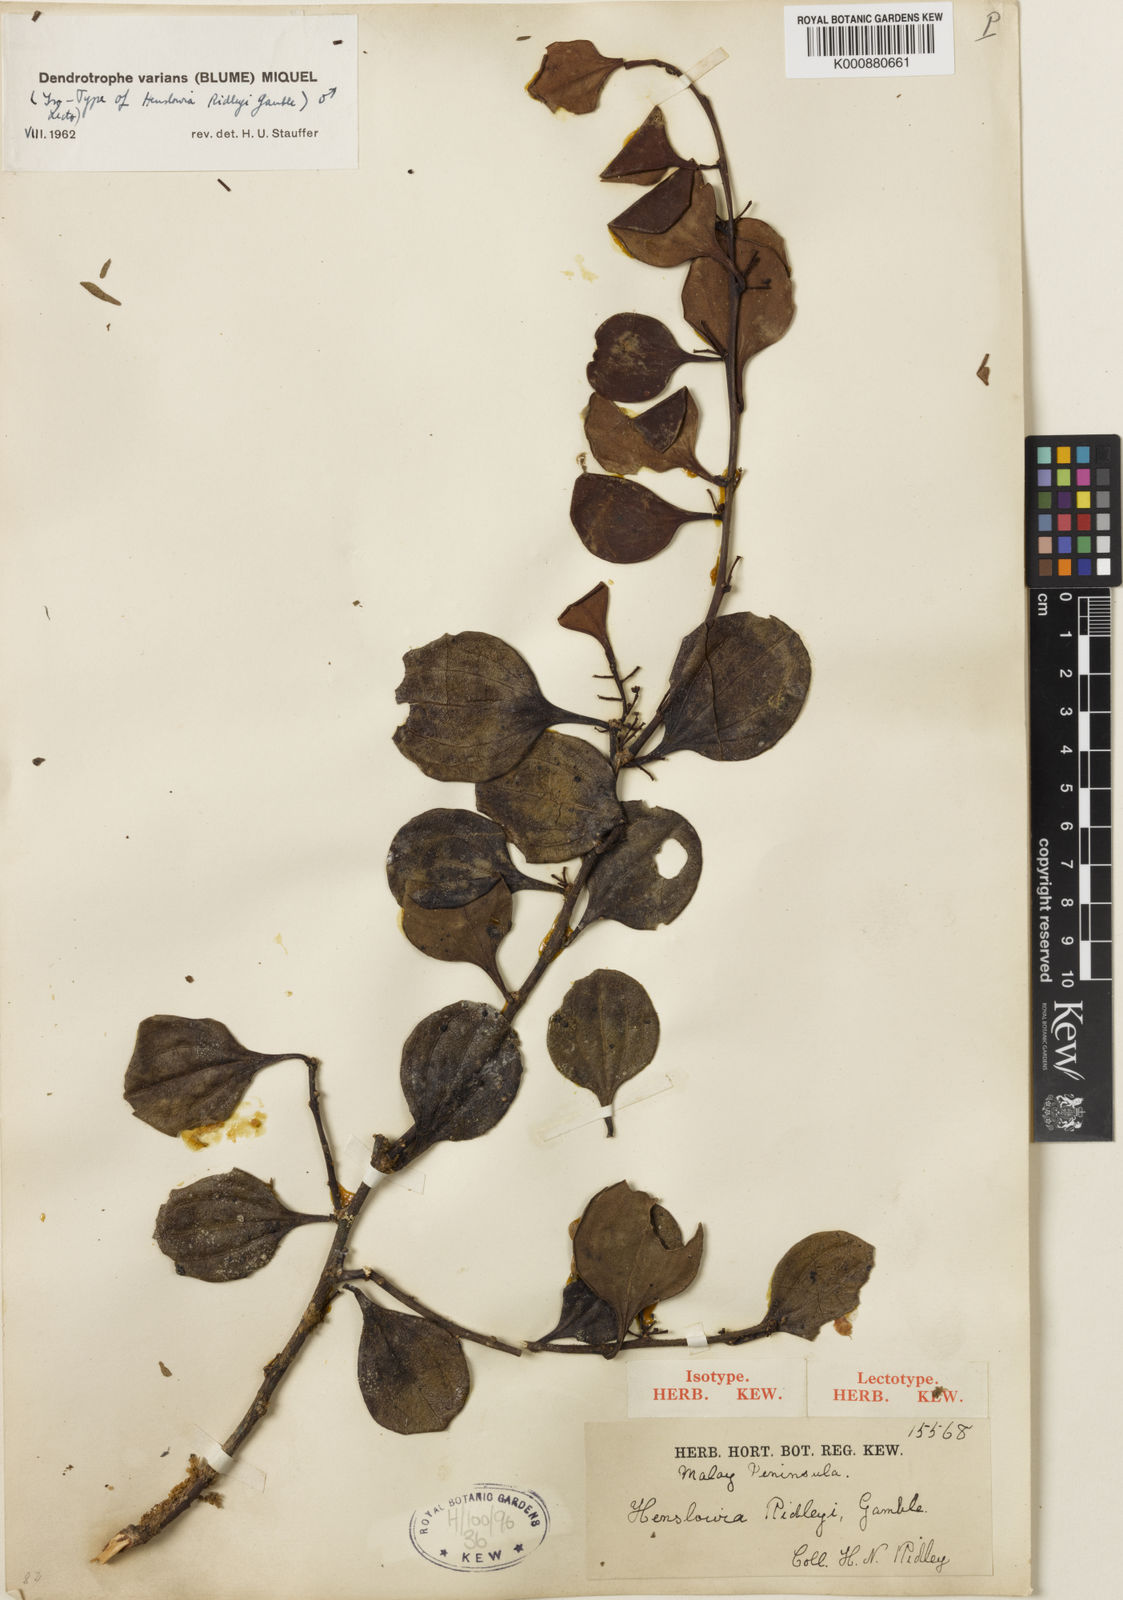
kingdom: Plantae
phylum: Tracheophyta
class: Magnoliopsida
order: Santalales
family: Amphorogynaceae
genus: Dendrotrophe
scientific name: Dendrotrophe varians
